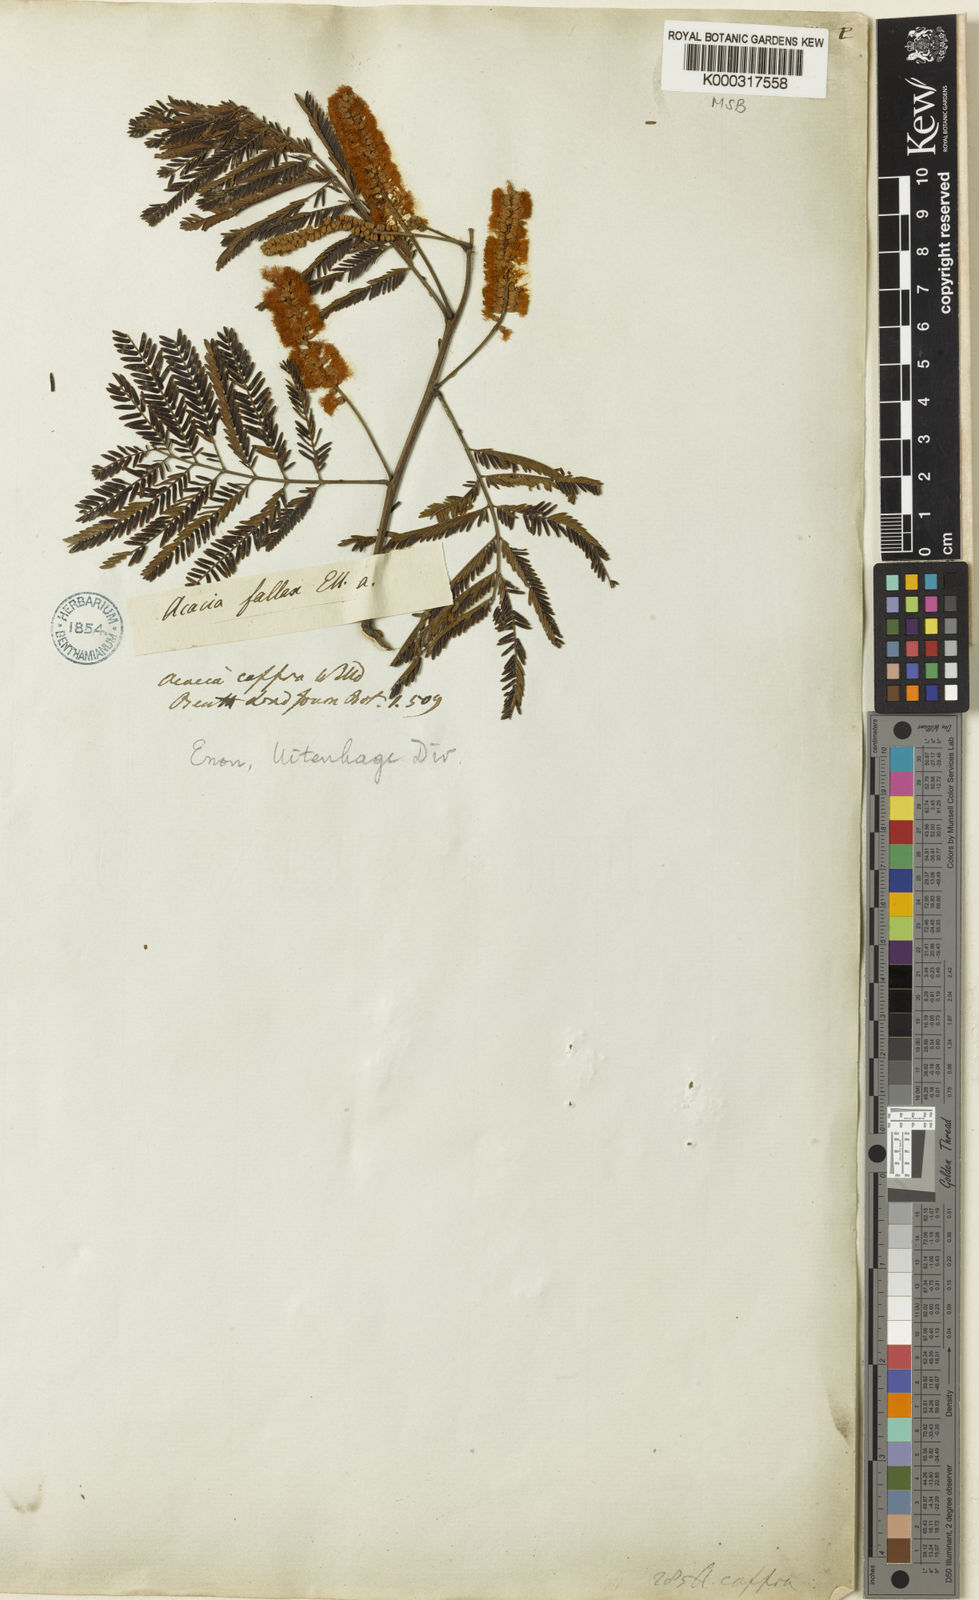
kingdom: Plantae
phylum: Tracheophyta
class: Magnoliopsida
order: Fabales
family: Fabaceae
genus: Senegalia
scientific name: Senegalia caffra
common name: Cat thorn
